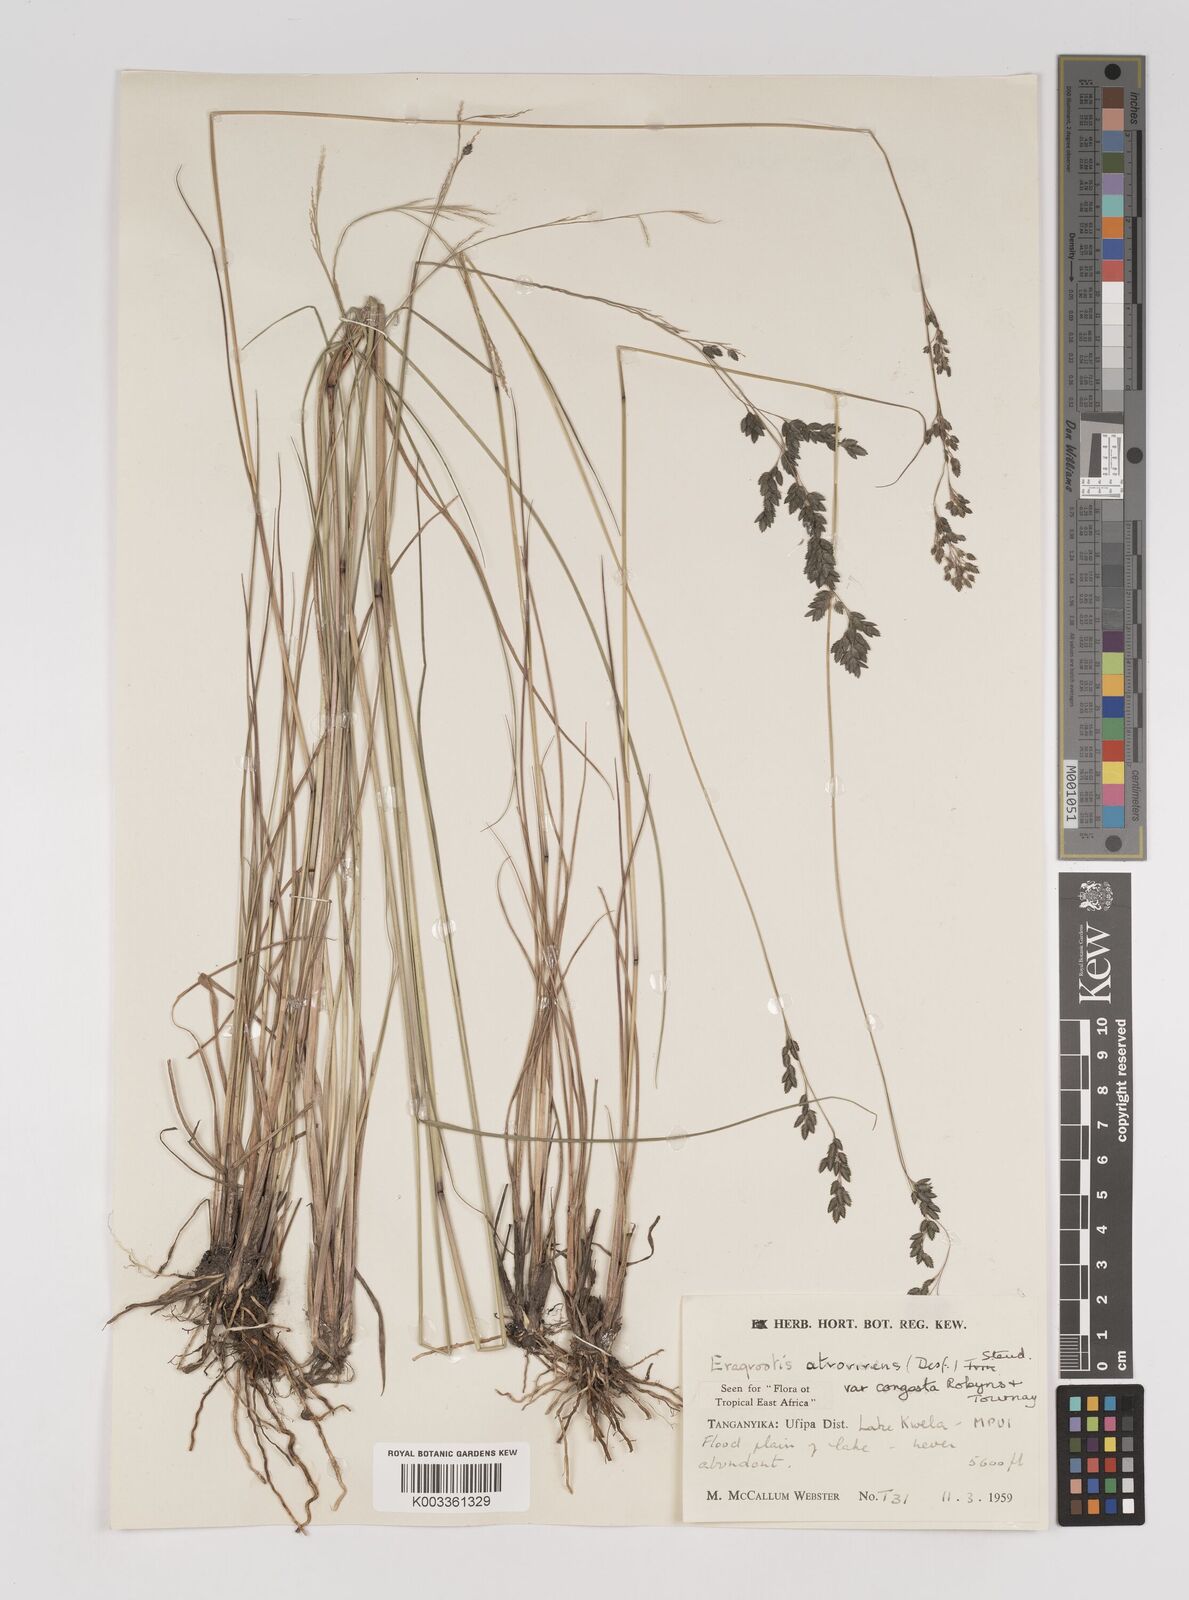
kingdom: Plantae
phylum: Tracheophyta
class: Liliopsida
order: Poales
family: Poaceae
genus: Eragrostis
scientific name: Eragrostis botryodes
